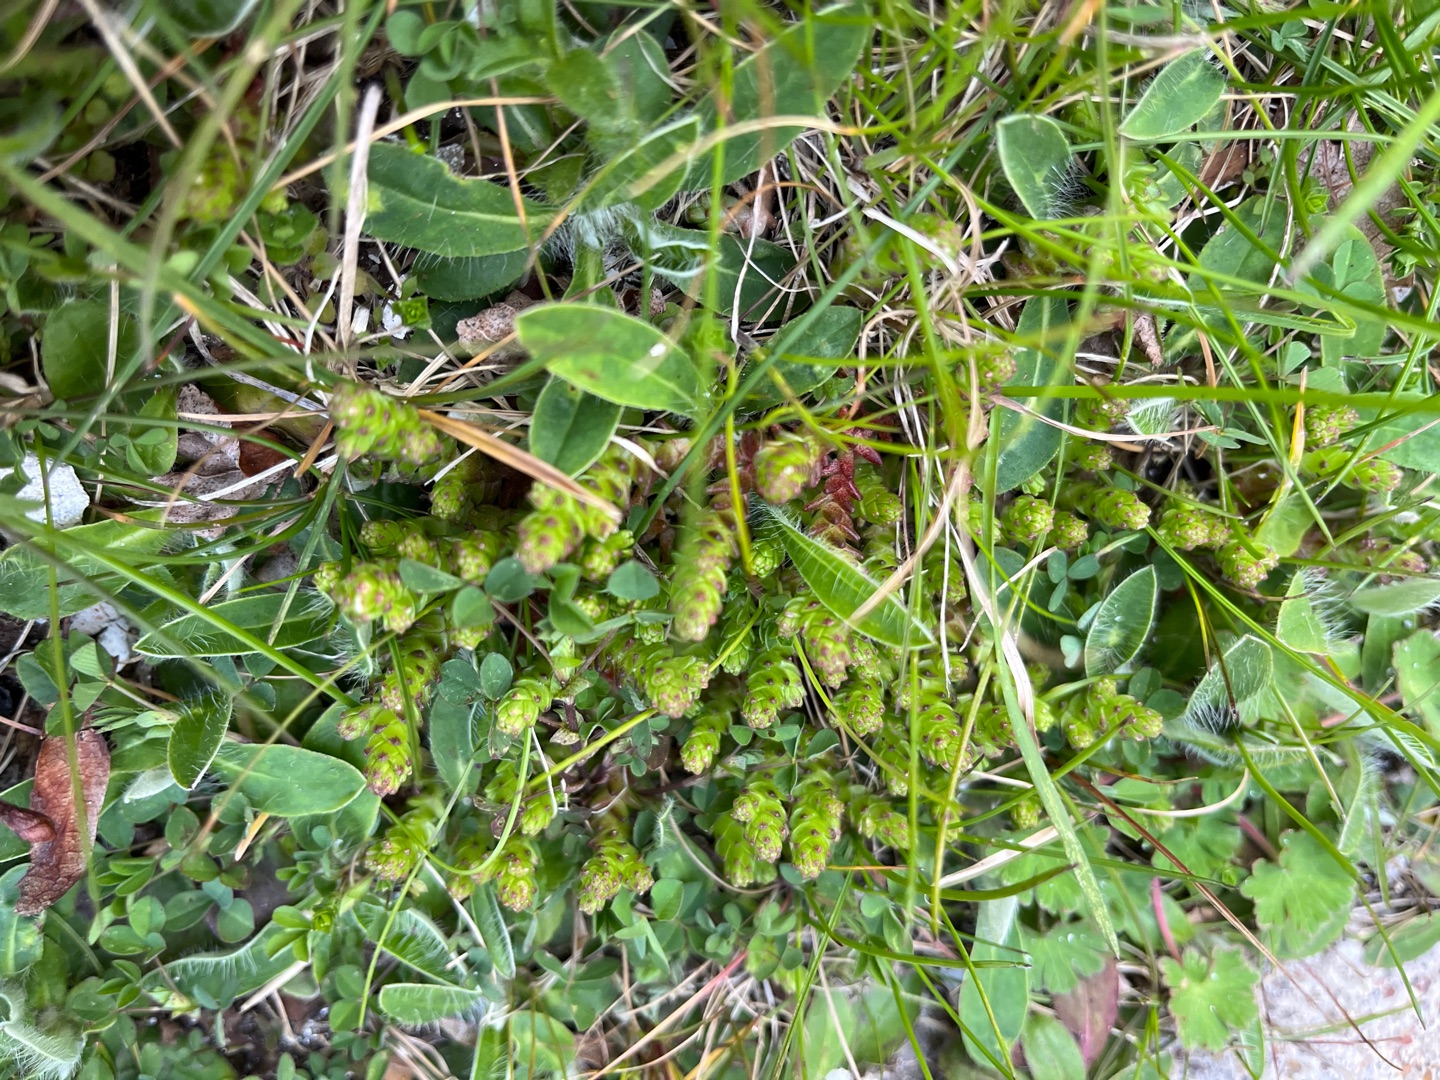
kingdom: Plantae
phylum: Tracheophyta
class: Magnoliopsida
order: Saxifragales
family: Crassulaceae
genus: Sedum
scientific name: Sedum acre
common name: Bidende stenurt
